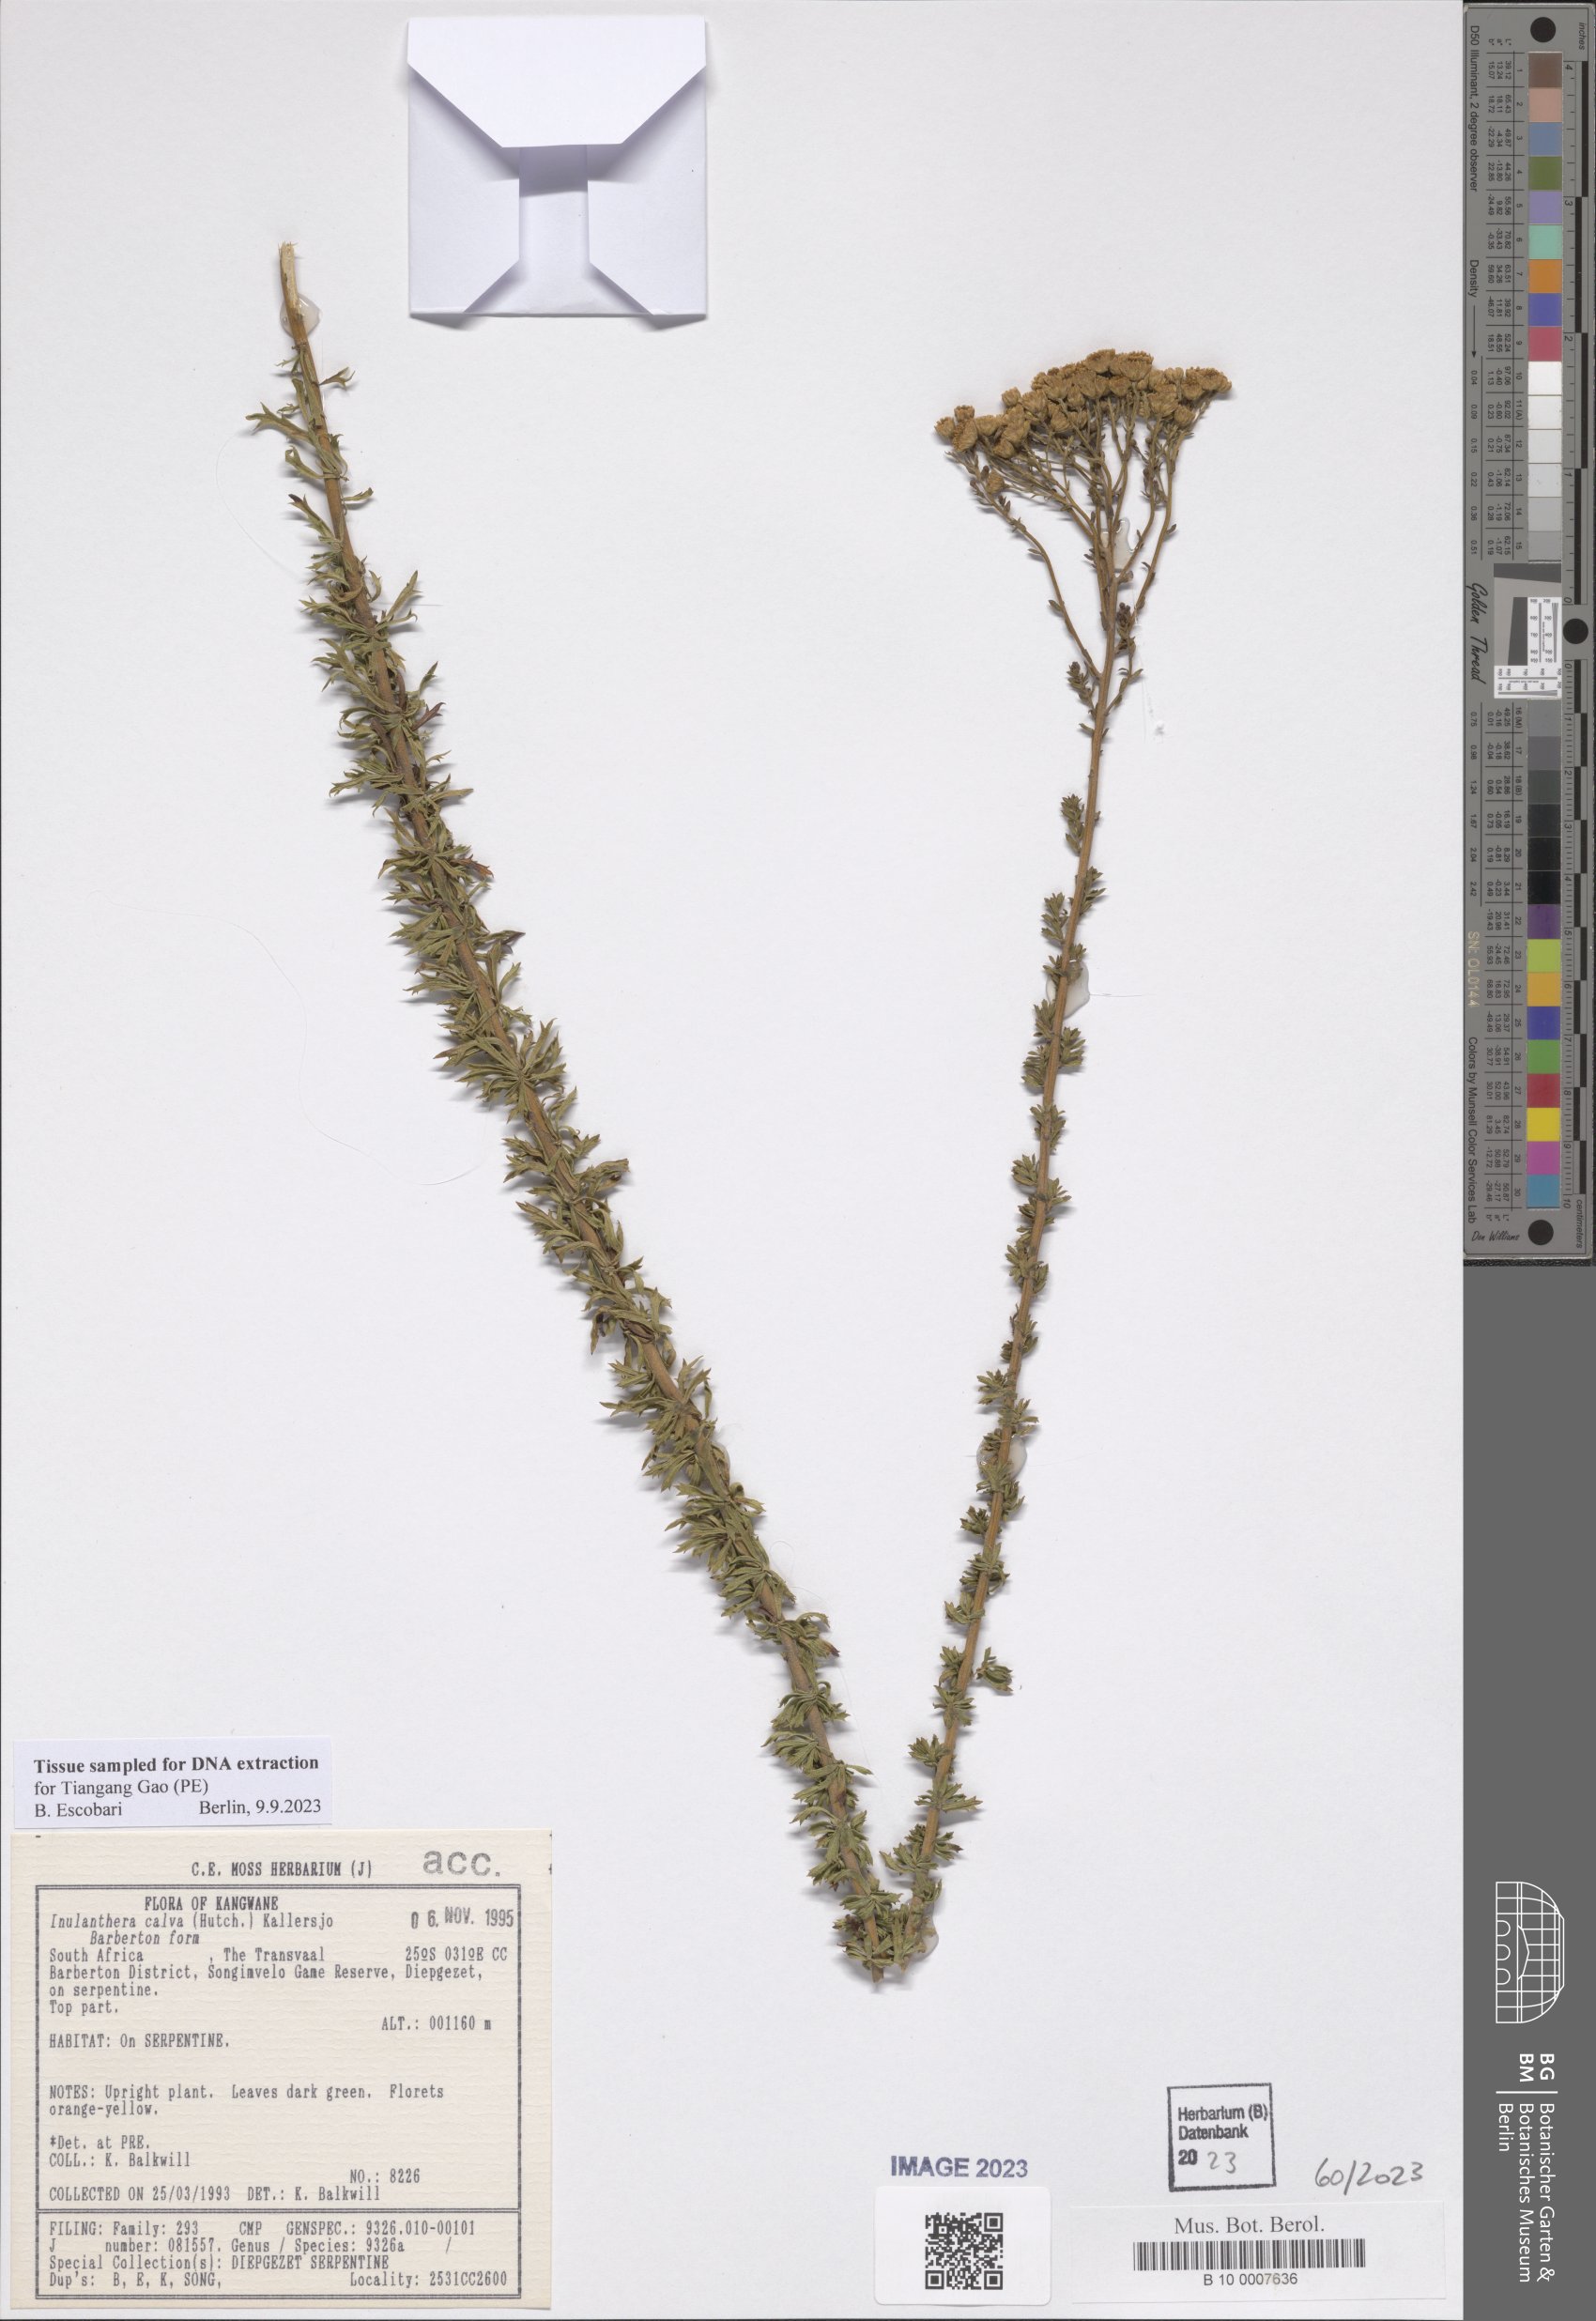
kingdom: Plantae
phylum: Tracheophyta
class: Magnoliopsida
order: Asterales
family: Asteraceae
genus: Inulanthera
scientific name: Inulanthera dregeana
